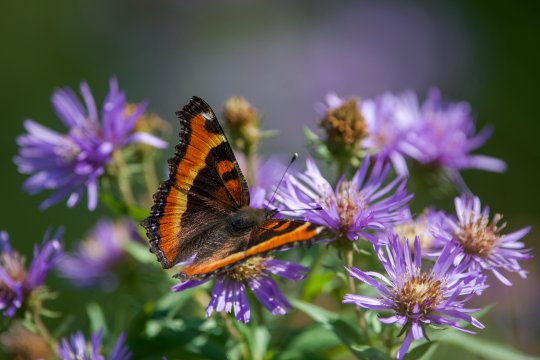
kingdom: Animalia
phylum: Arthropoda
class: Insecta
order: Lepidoptera
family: Nymphalidae
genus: Aglais
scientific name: Aglais milberti
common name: Milbert's Tortoiseshell
